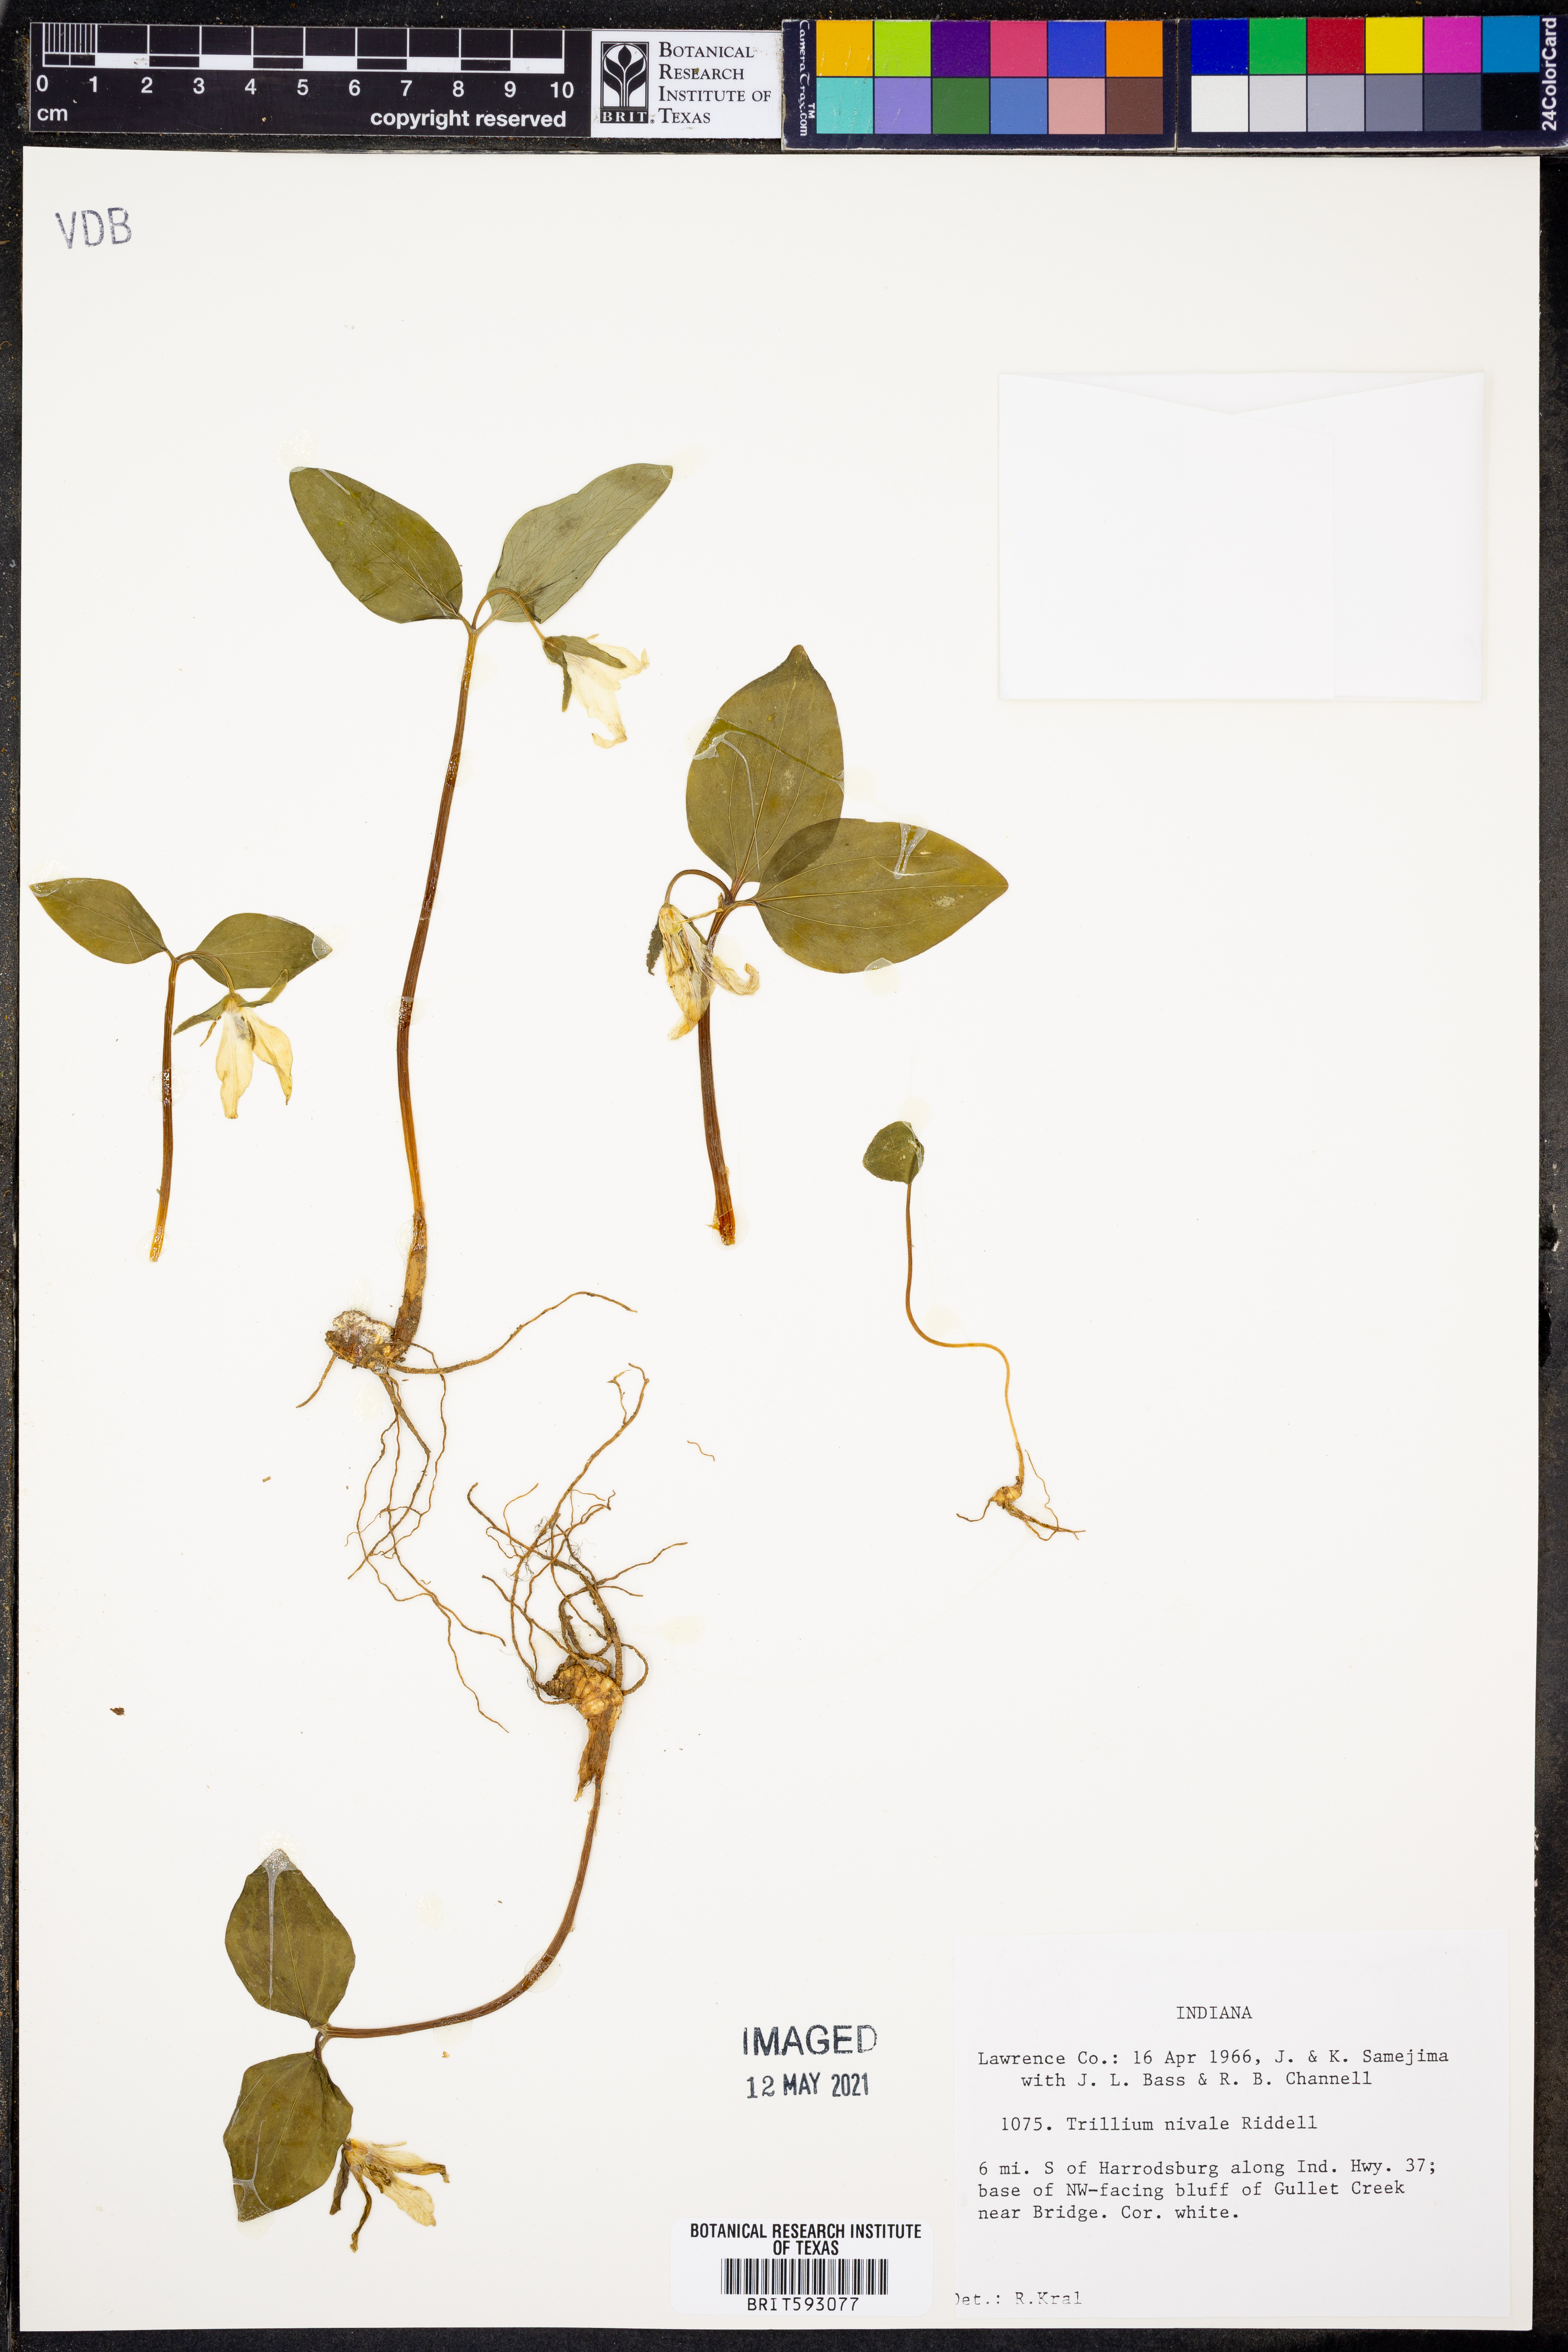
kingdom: Plantae
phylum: Tracheophyta
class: Liliopsida
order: Liliales
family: Melanthiaceae
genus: Trillium
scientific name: Trillium nivale
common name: Dwarf white trillium
